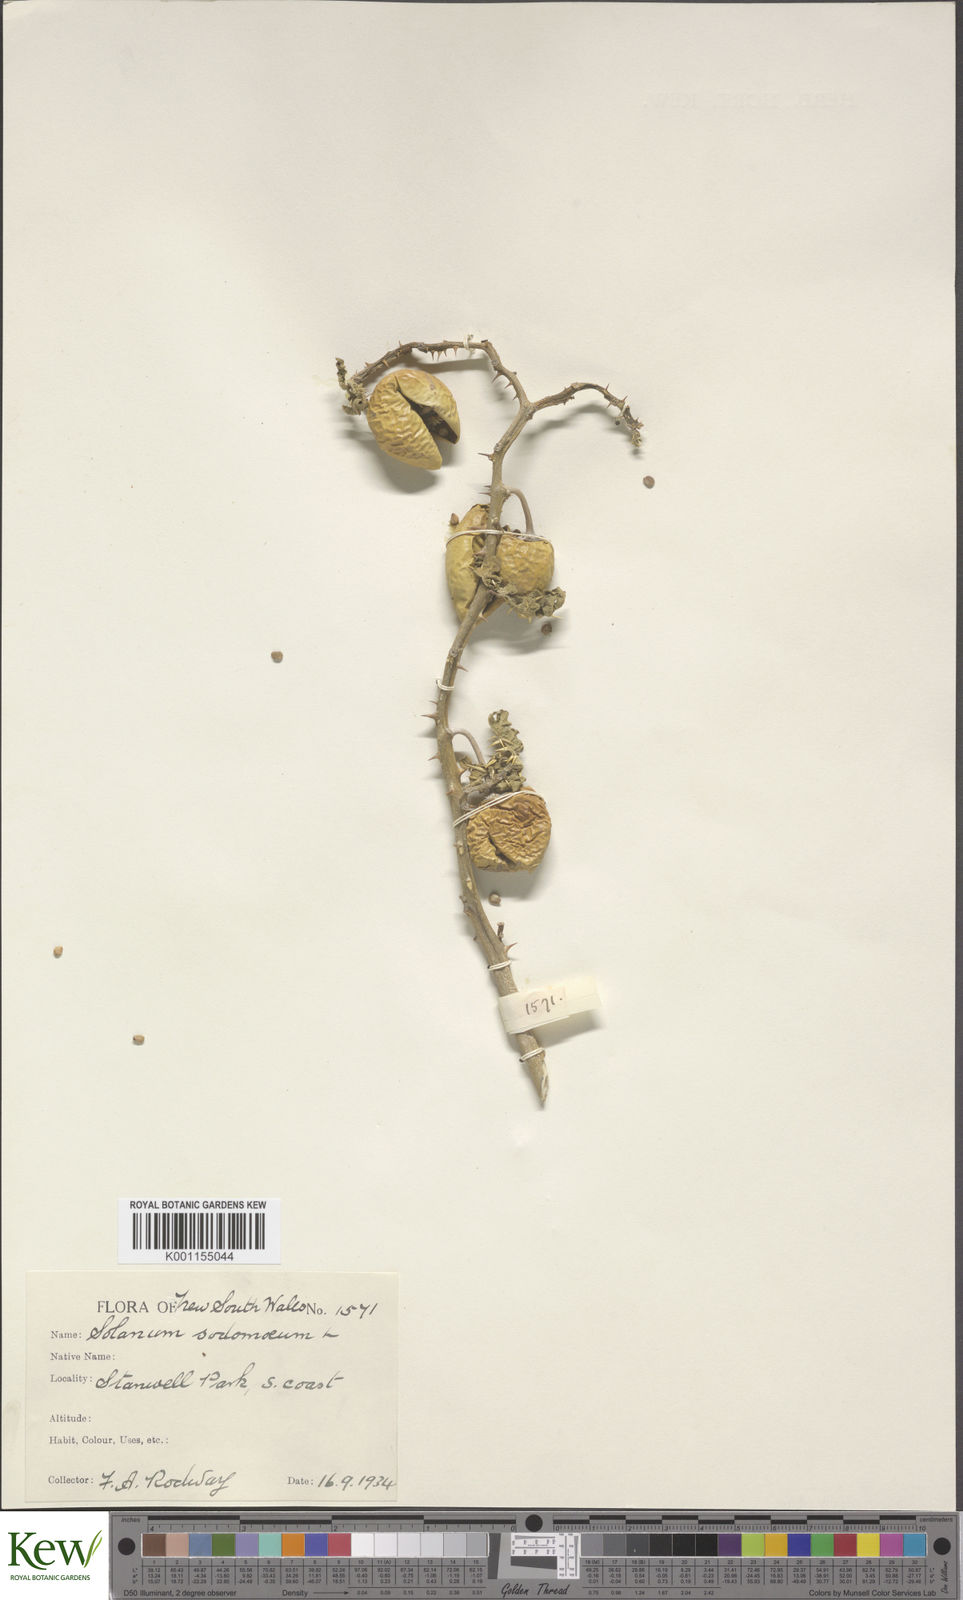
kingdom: Plantae
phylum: Tracheophyta
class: Magnoliopsida
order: Solanales
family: Solanaceae
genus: Solanum
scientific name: Solanum anguivi
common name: Forest bitterberry
